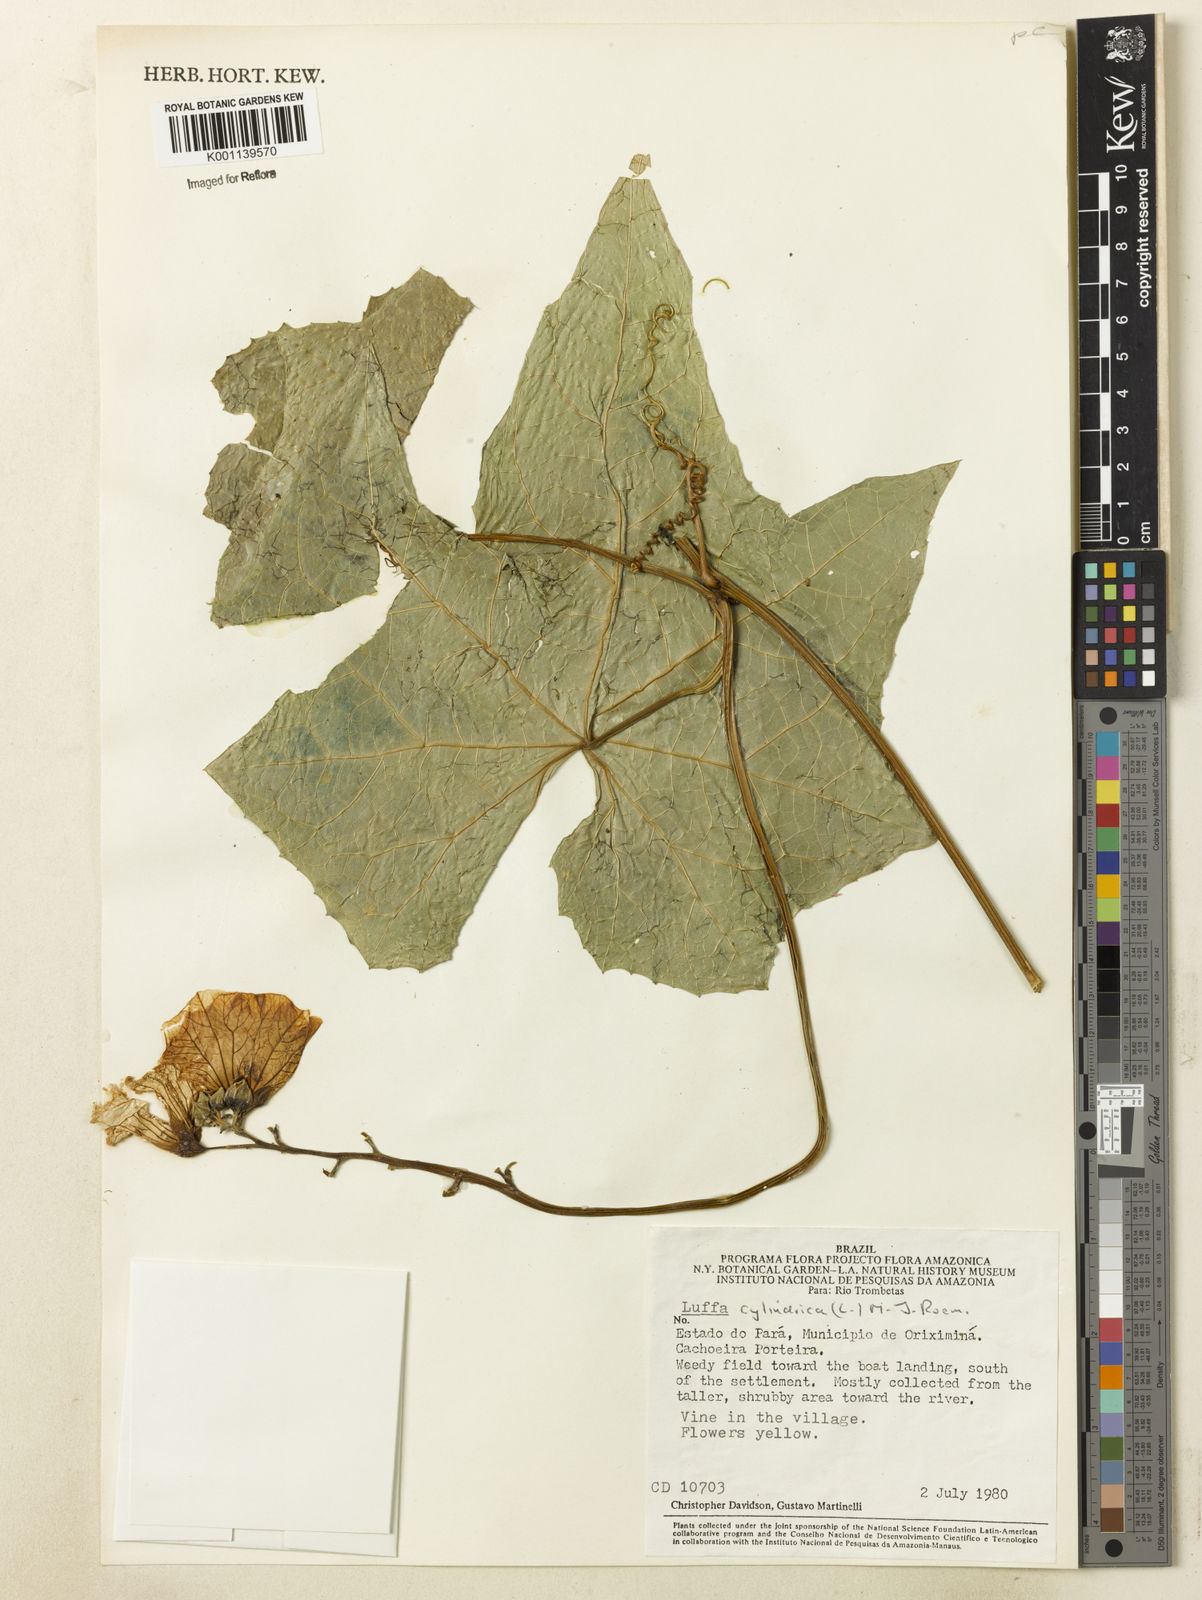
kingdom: Plantae
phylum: Tracheophyta
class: Magnoliopsida
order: Cucurbitales
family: Cucurbitaceae
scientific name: Cucurbitaceae
